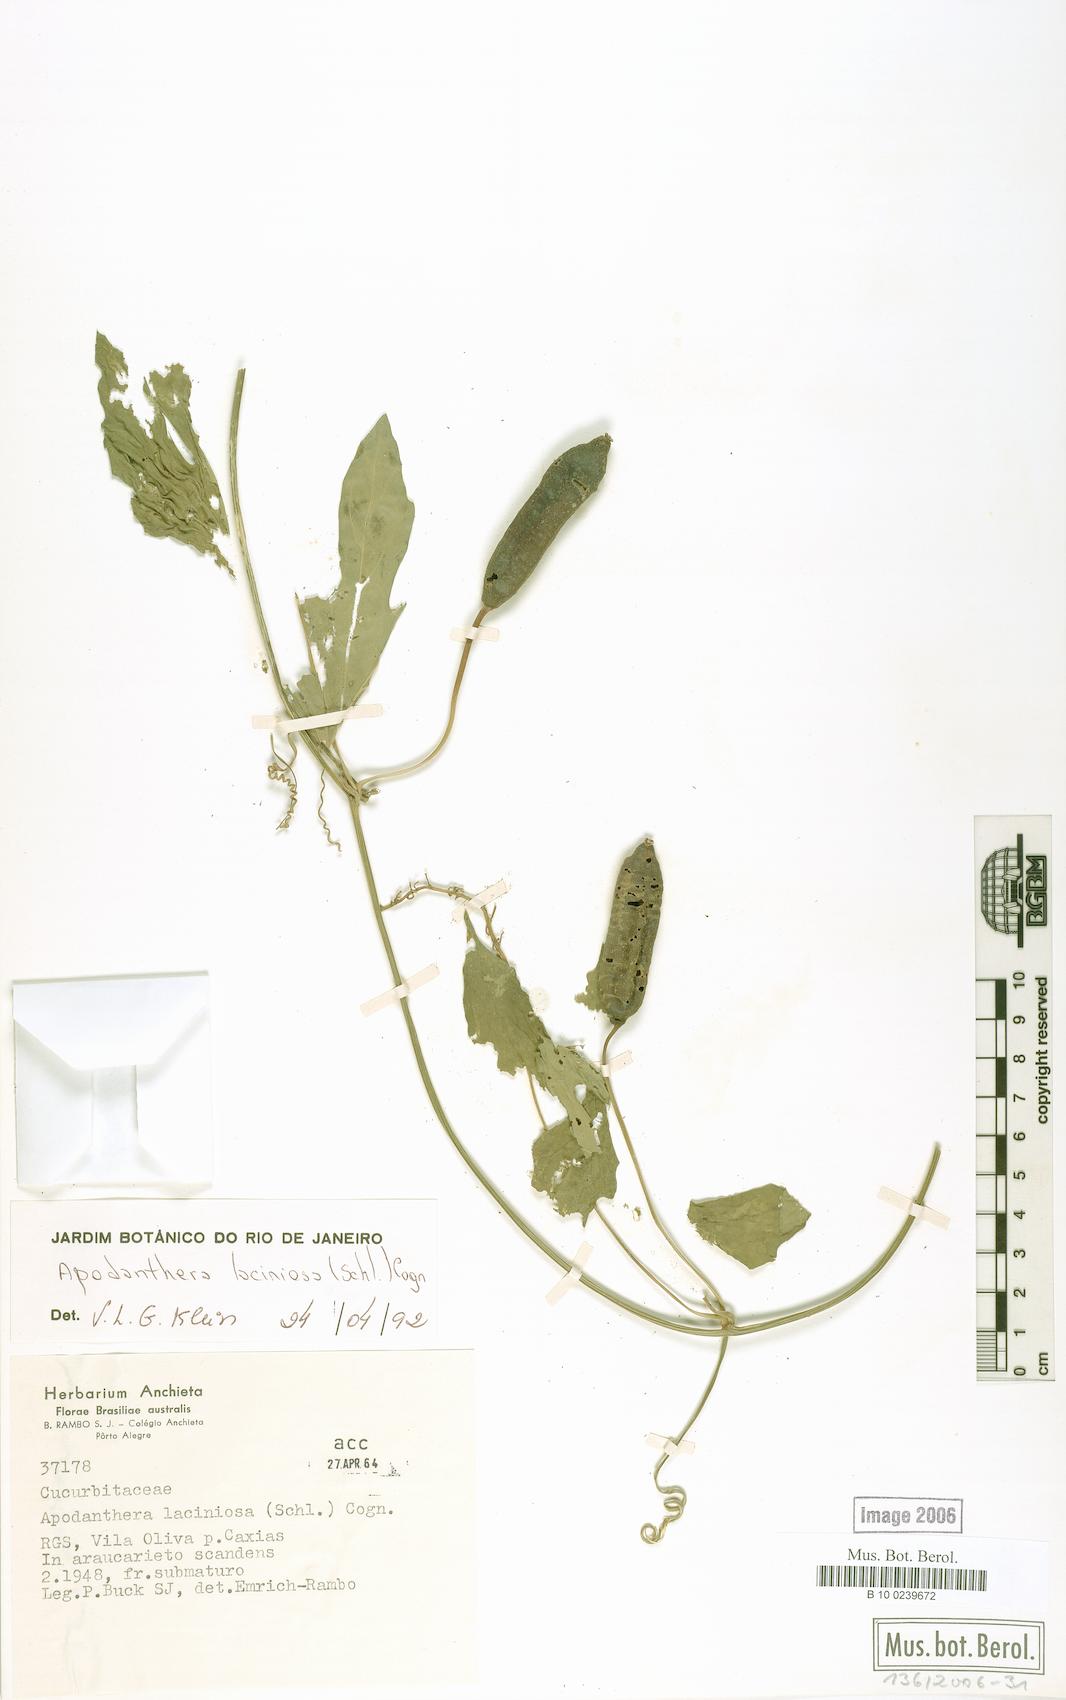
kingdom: Plantae
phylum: Tracheophyta
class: Magnoliopsida
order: Cucurbitales
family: Cucurbitaceae
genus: Apodanthera
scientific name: Apodanthera laciniosa
